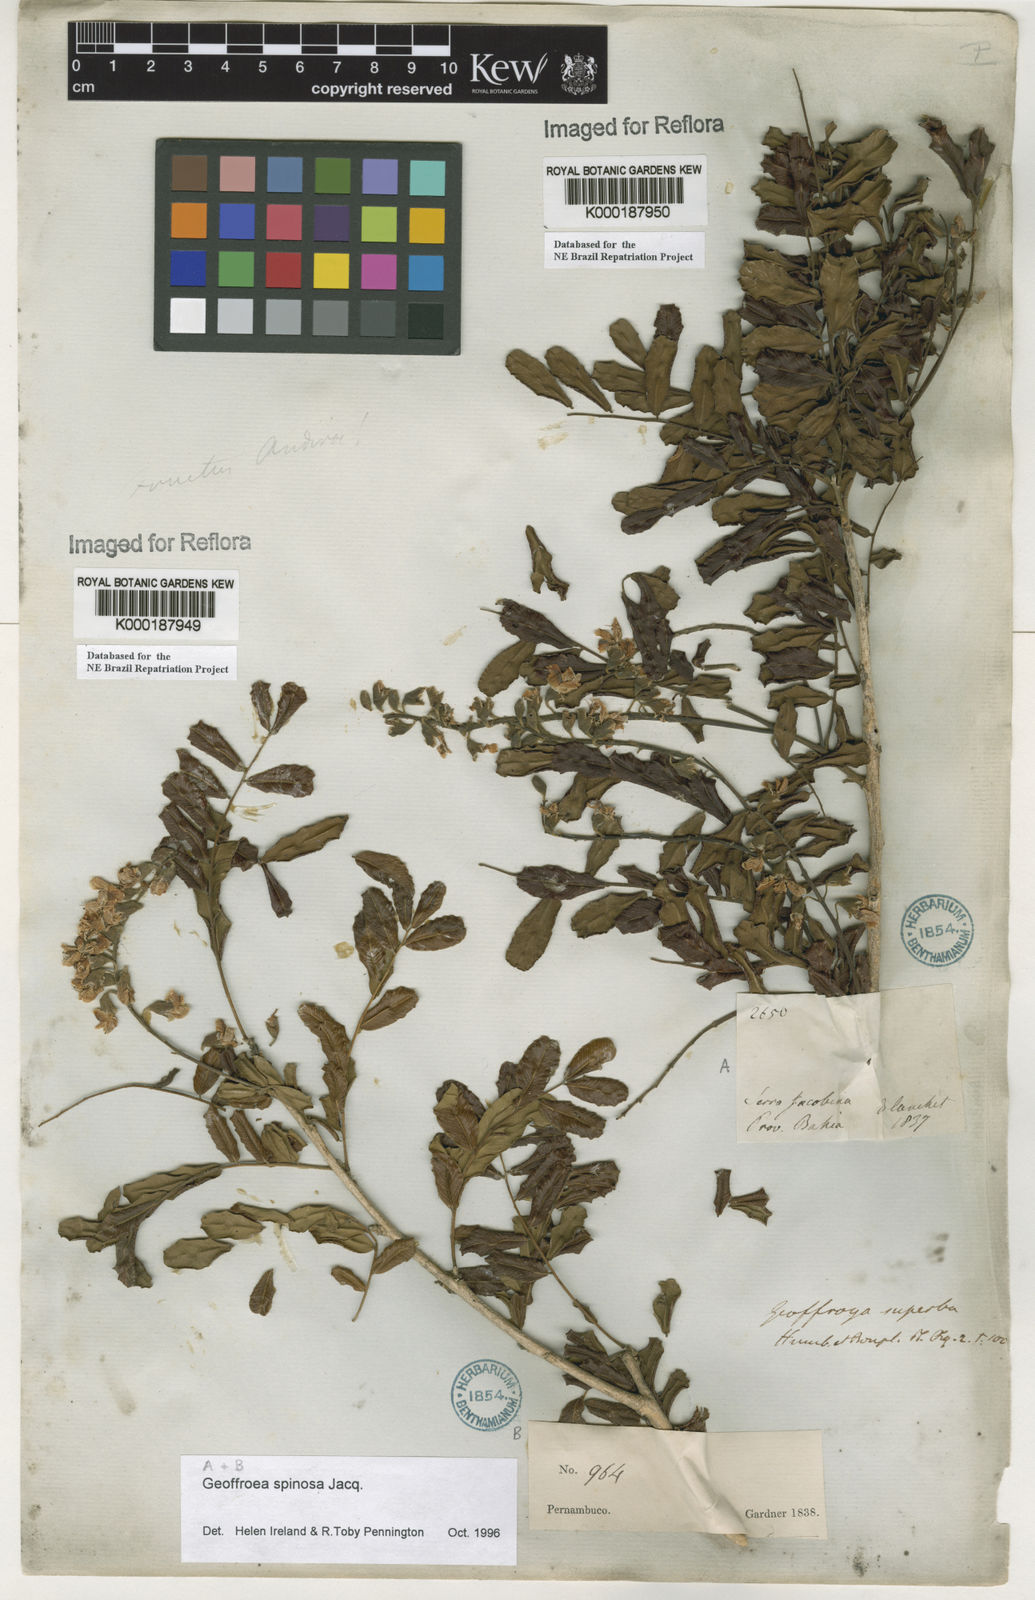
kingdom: Plantae
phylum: Tracheophyta
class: Magnoliopsida
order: Fabales
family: Fabaceae
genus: Geoffroea
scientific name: Geoffroea spinosa
